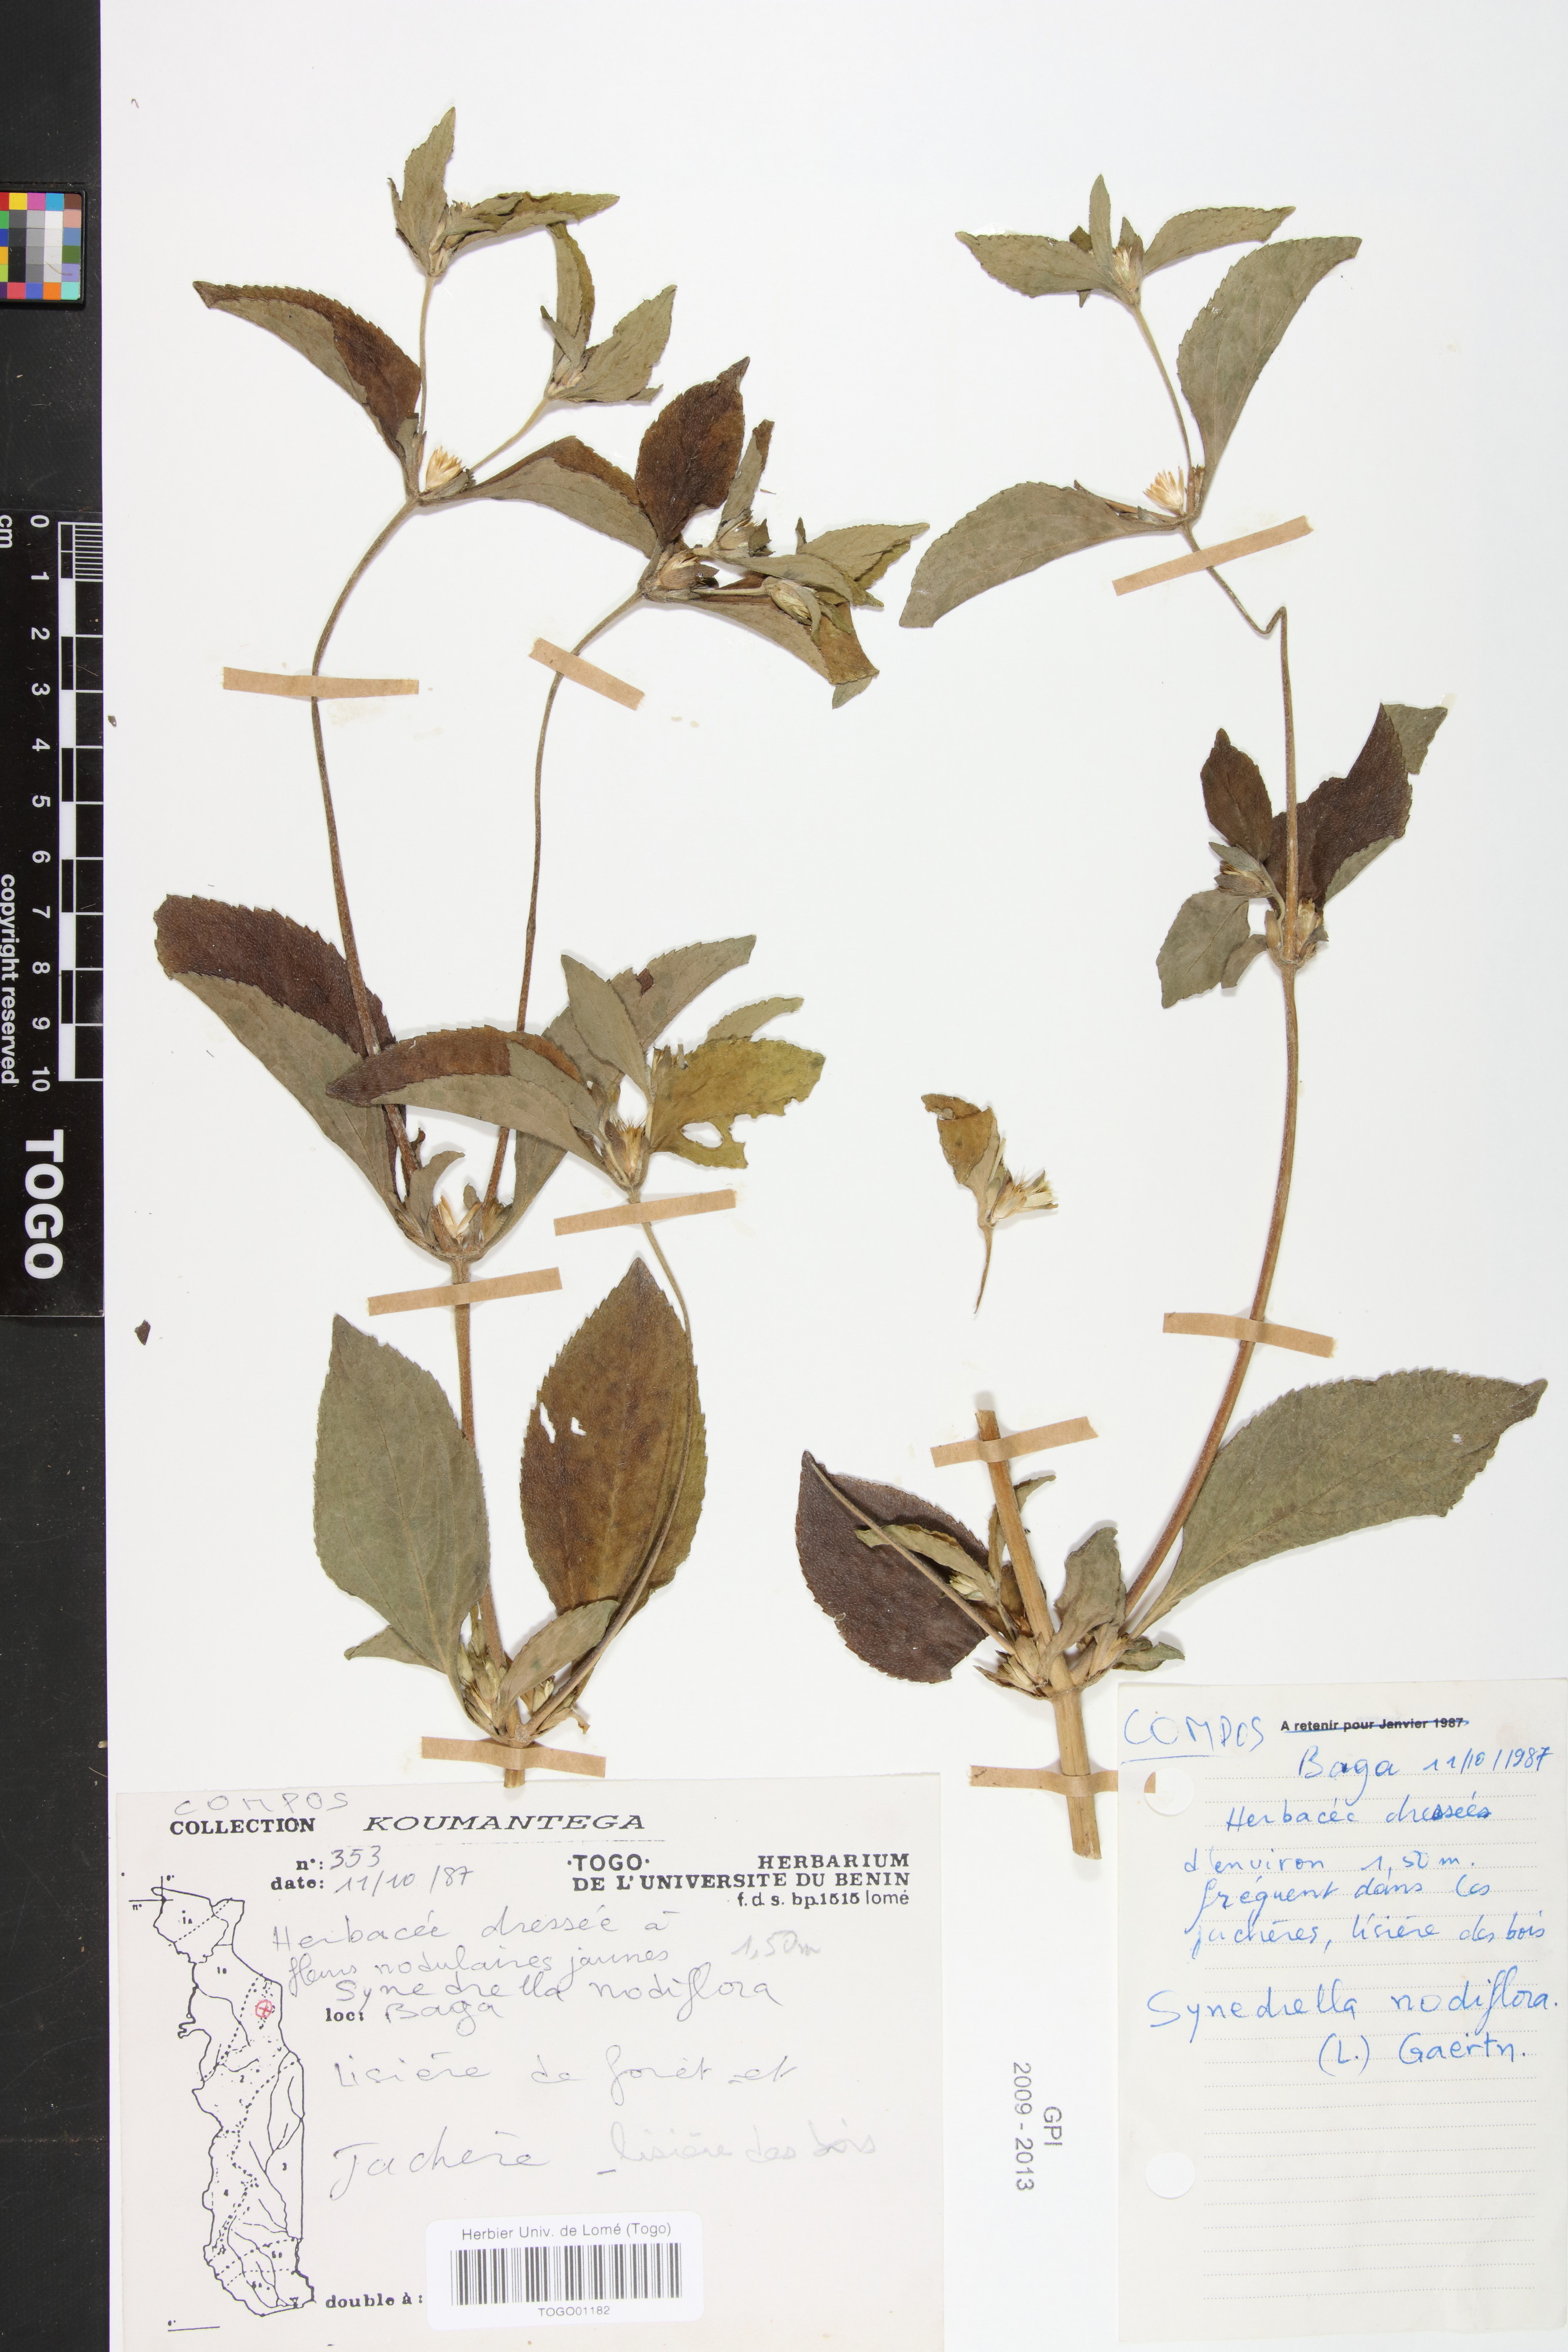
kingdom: Plantae
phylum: Tracheophyta
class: Magnoliopsida
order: Asterales
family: Asteraceae
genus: Synedrella
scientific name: Synedrella nodiflora
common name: Nodeweed
